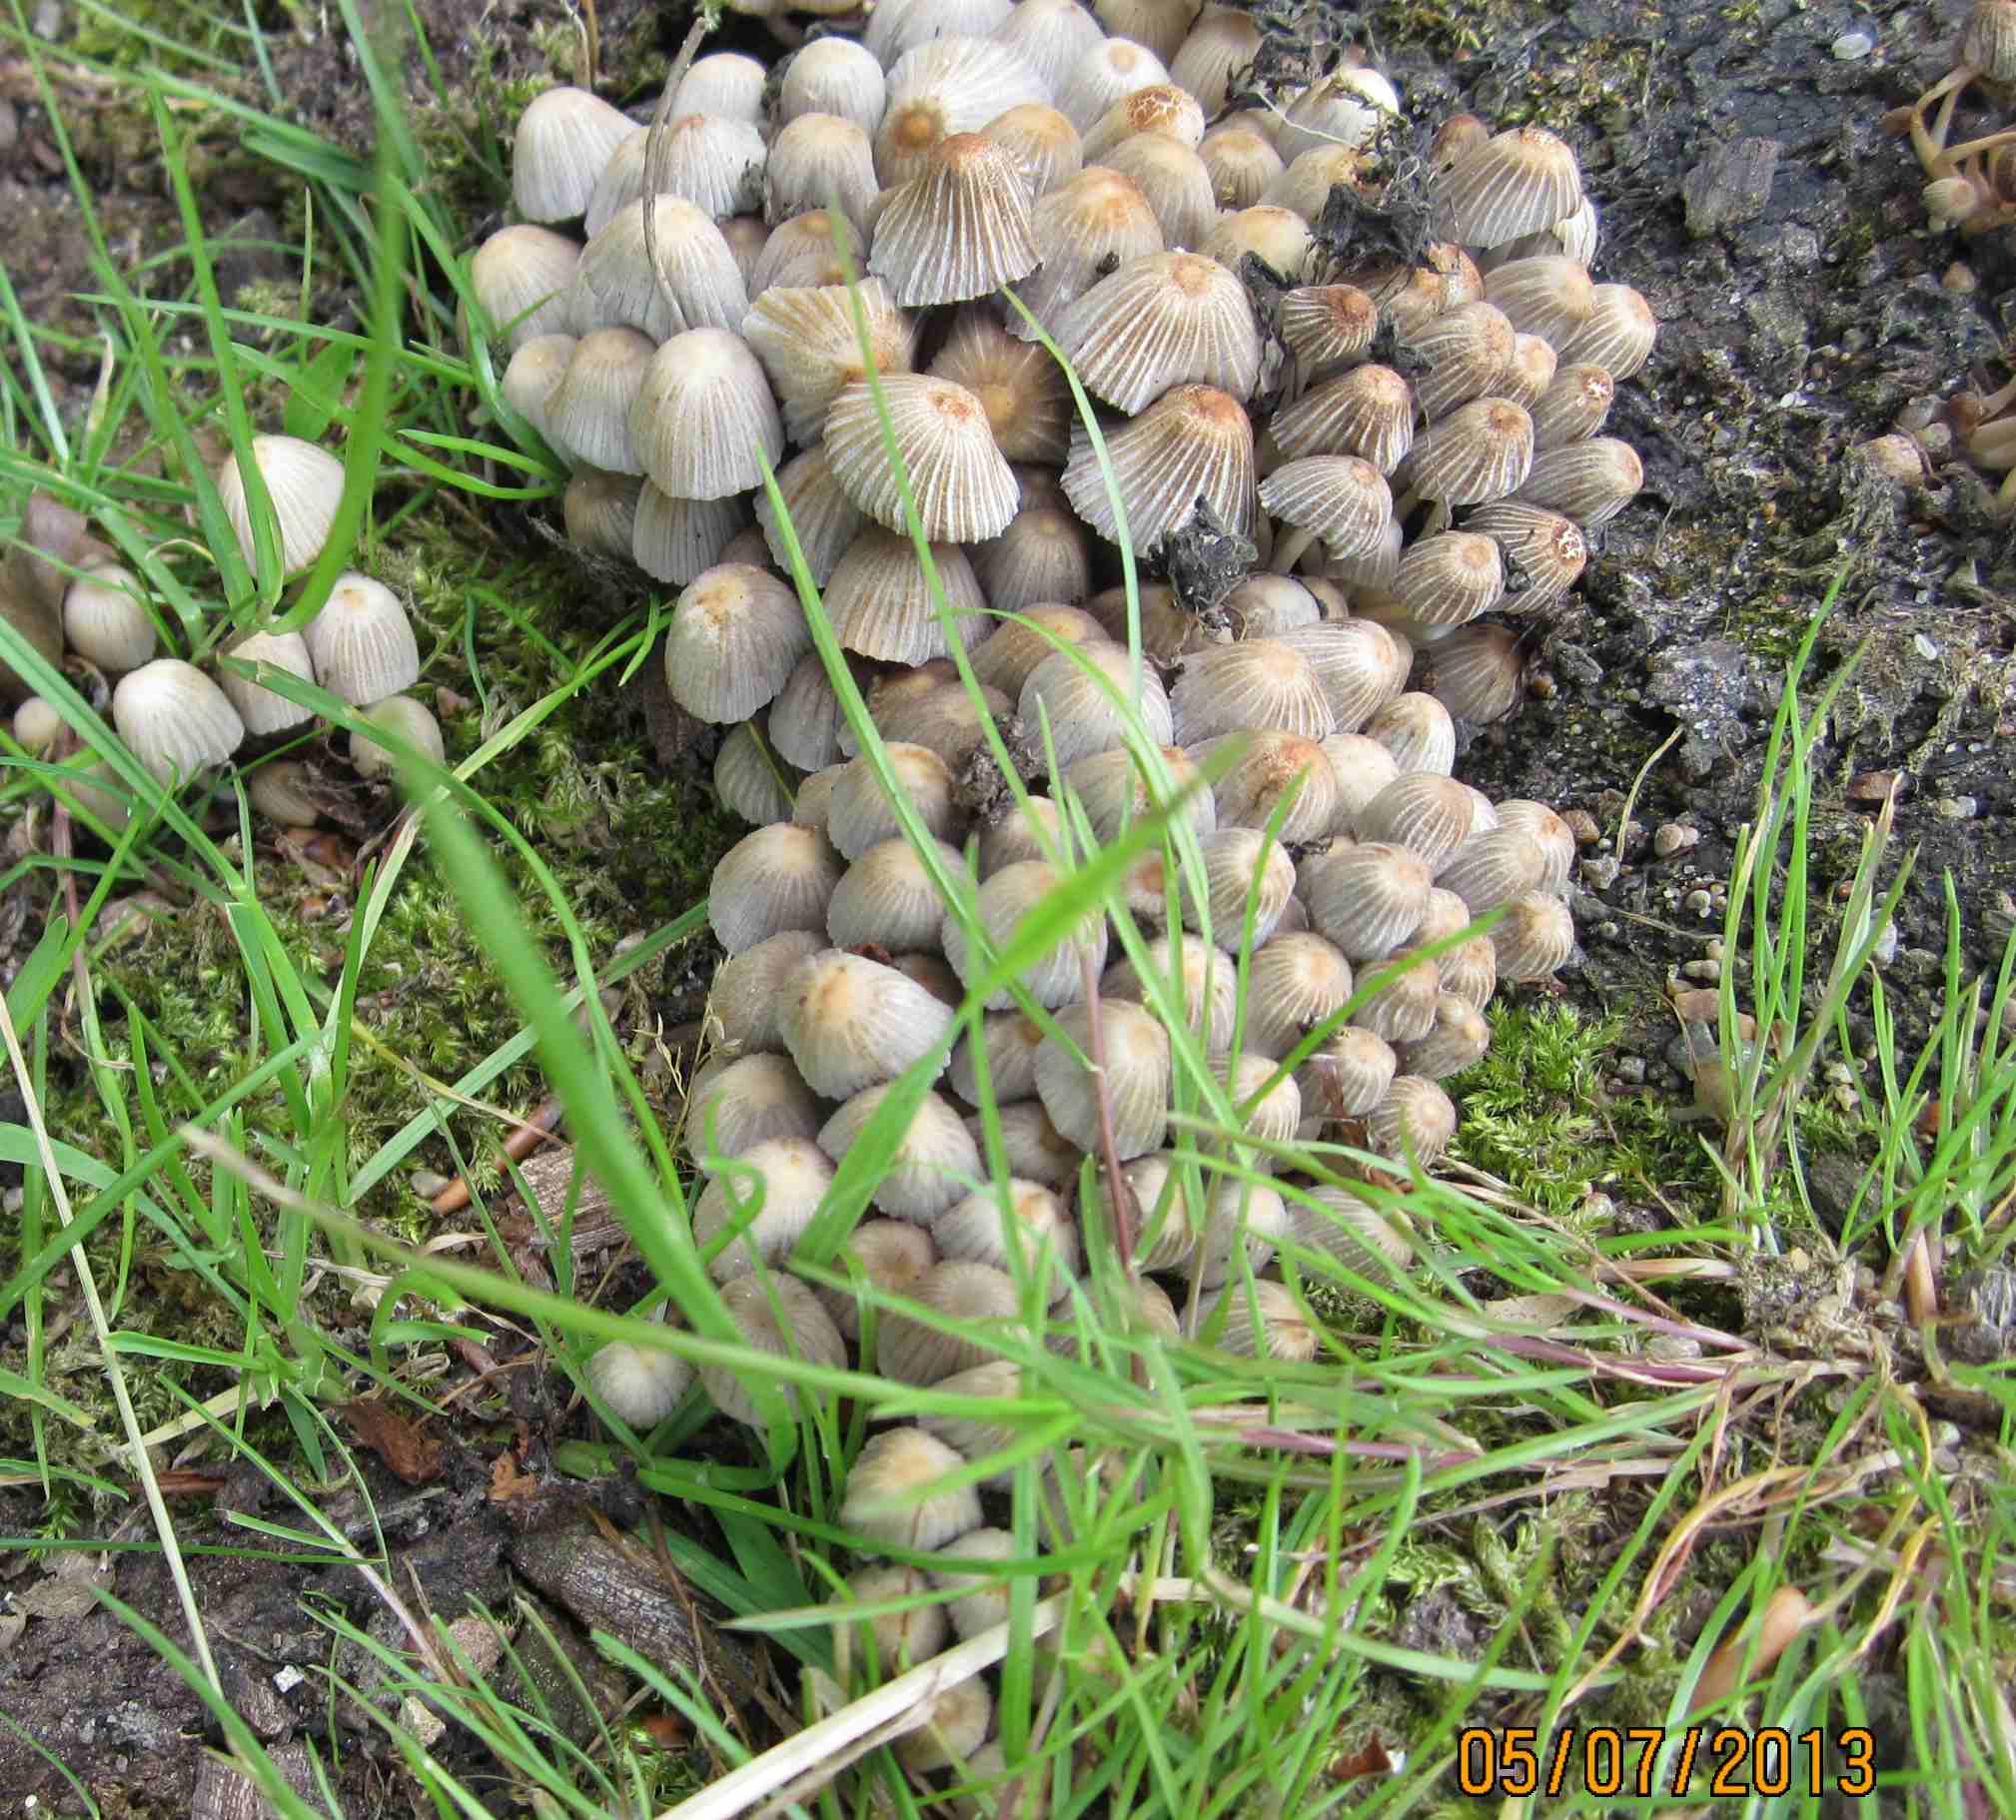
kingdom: Fungi
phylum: Basidiomycota
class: Agaricomycetes
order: Agaricales
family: Psathyrellaceae
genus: Coprinellus
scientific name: Coprinellus disseminatus
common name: bredsået blækhat
